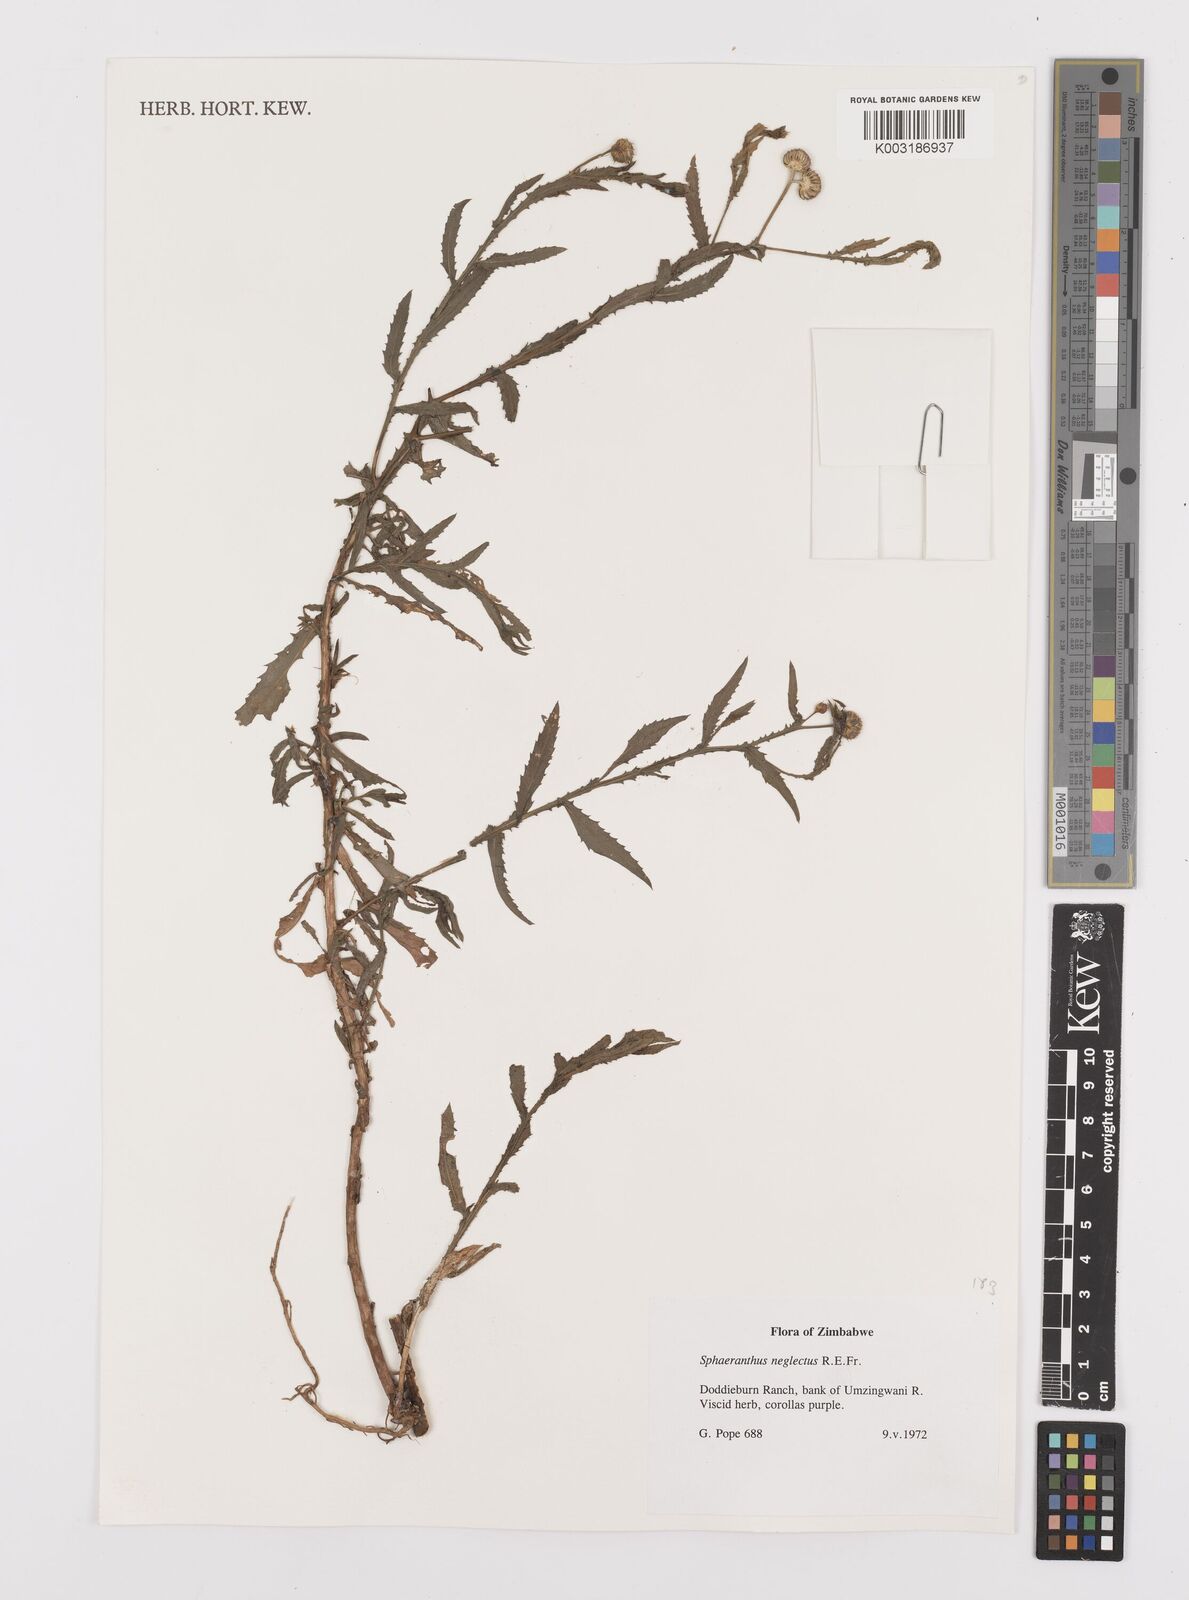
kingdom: Plantae
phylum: Tracheophyta
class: Magnoliopsida
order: Asterales
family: Asteraceae
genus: Sphaeranthus
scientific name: Sphaeranthus neglectus
